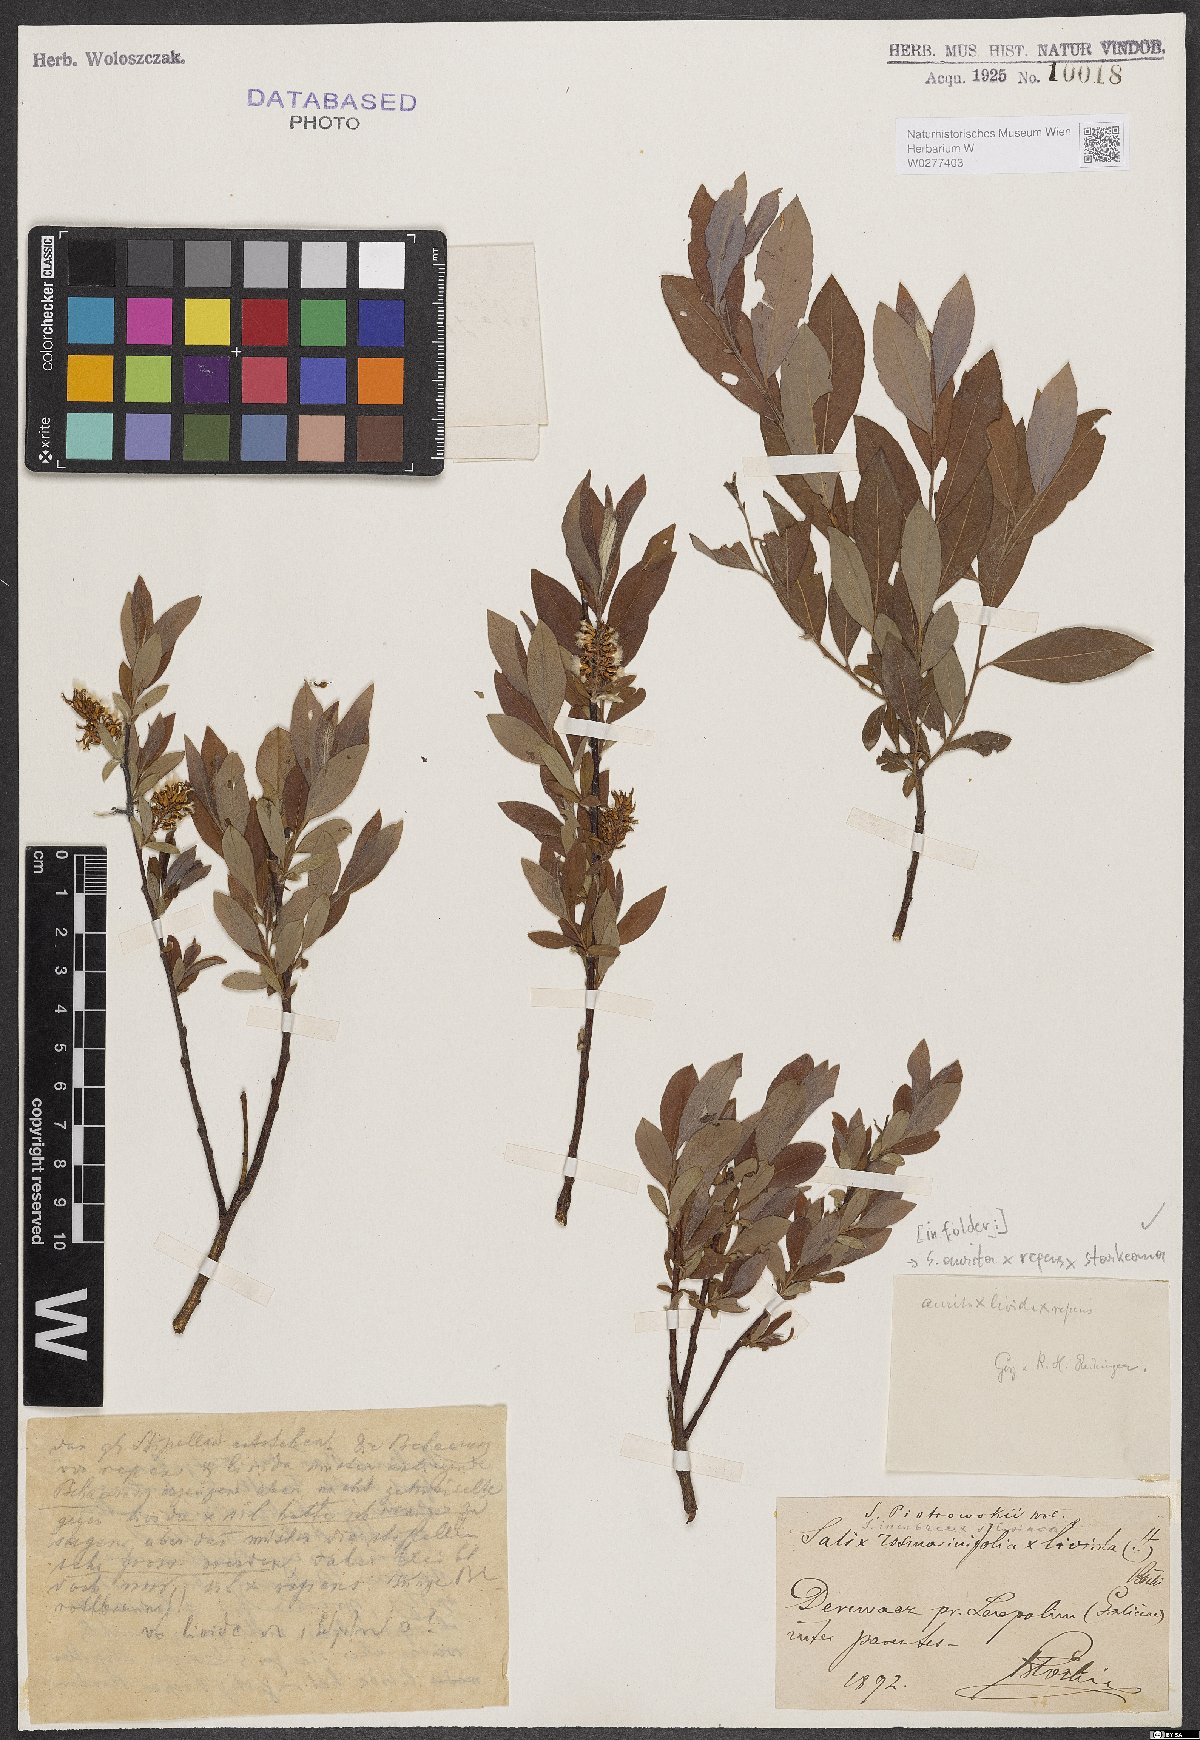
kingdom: Plantae
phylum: Tracheophyta
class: Magnoliopsida
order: Malpighiales
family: Salicaceae
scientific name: Salicaceae
